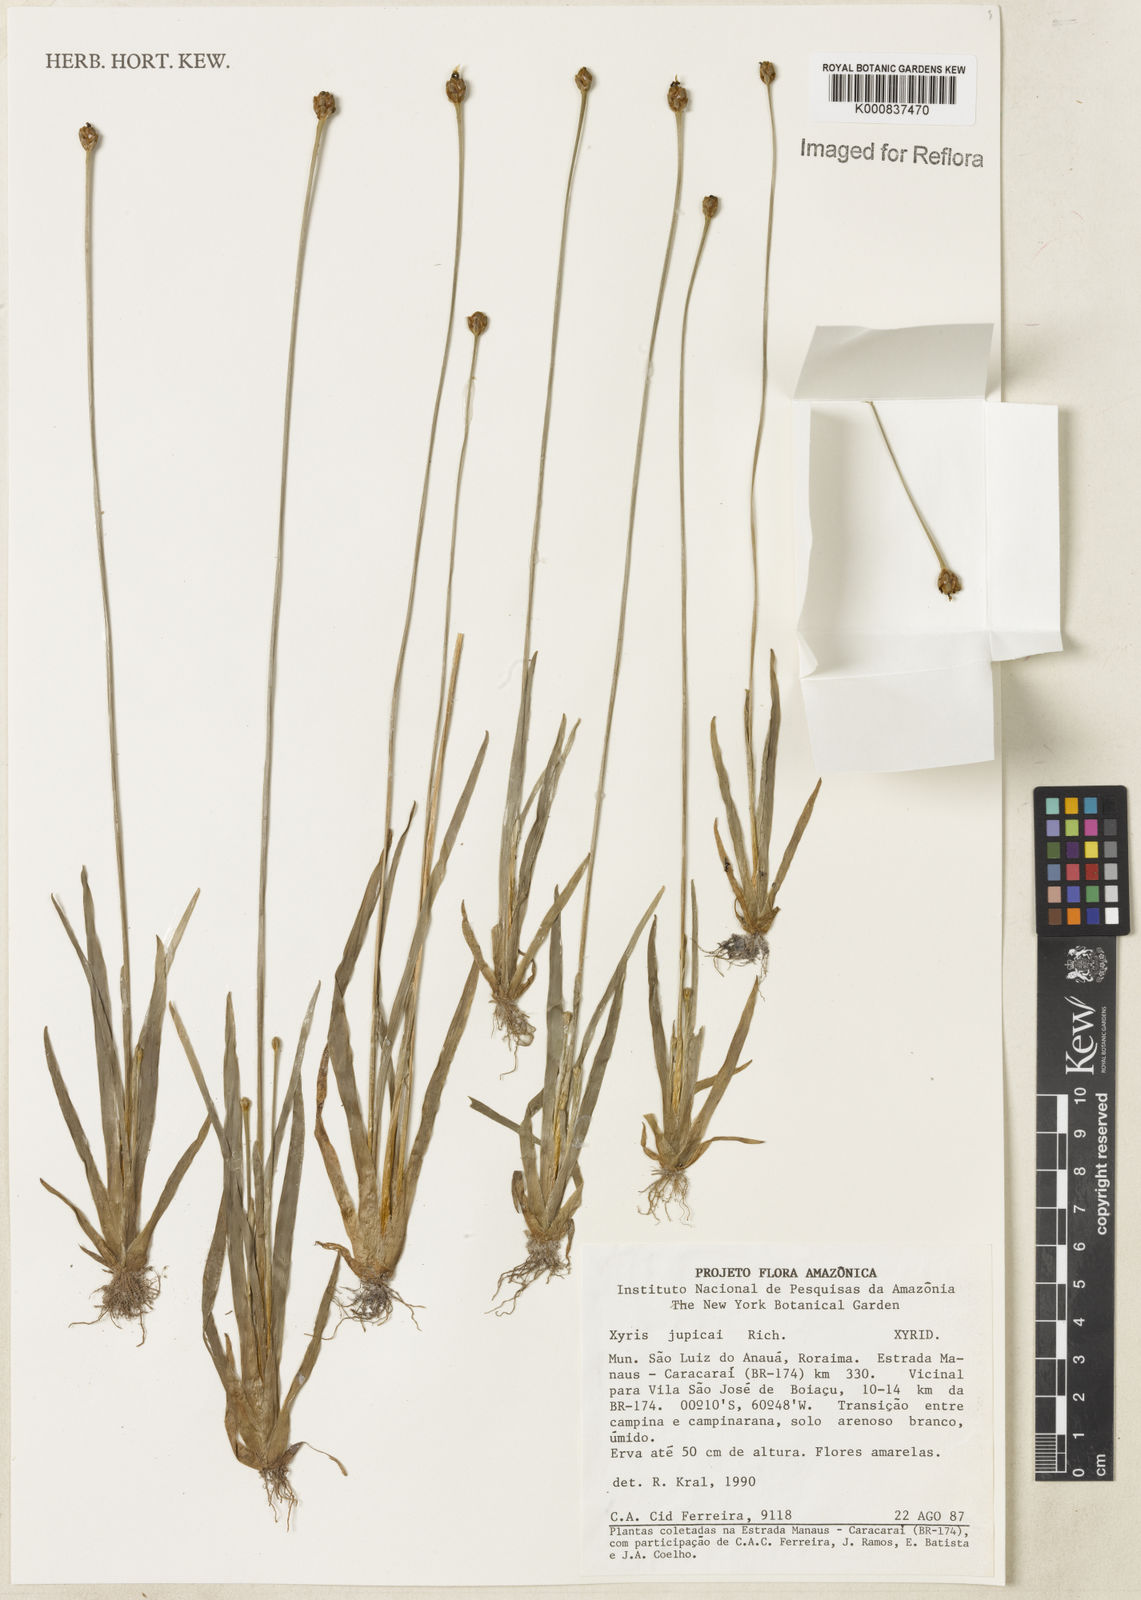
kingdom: Plantae
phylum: Tracheophyta
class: Liliopsida
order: Poales
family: Xyridaceae
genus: Xyris
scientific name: Xyris jupicai
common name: Richard's yelloweyed grass
